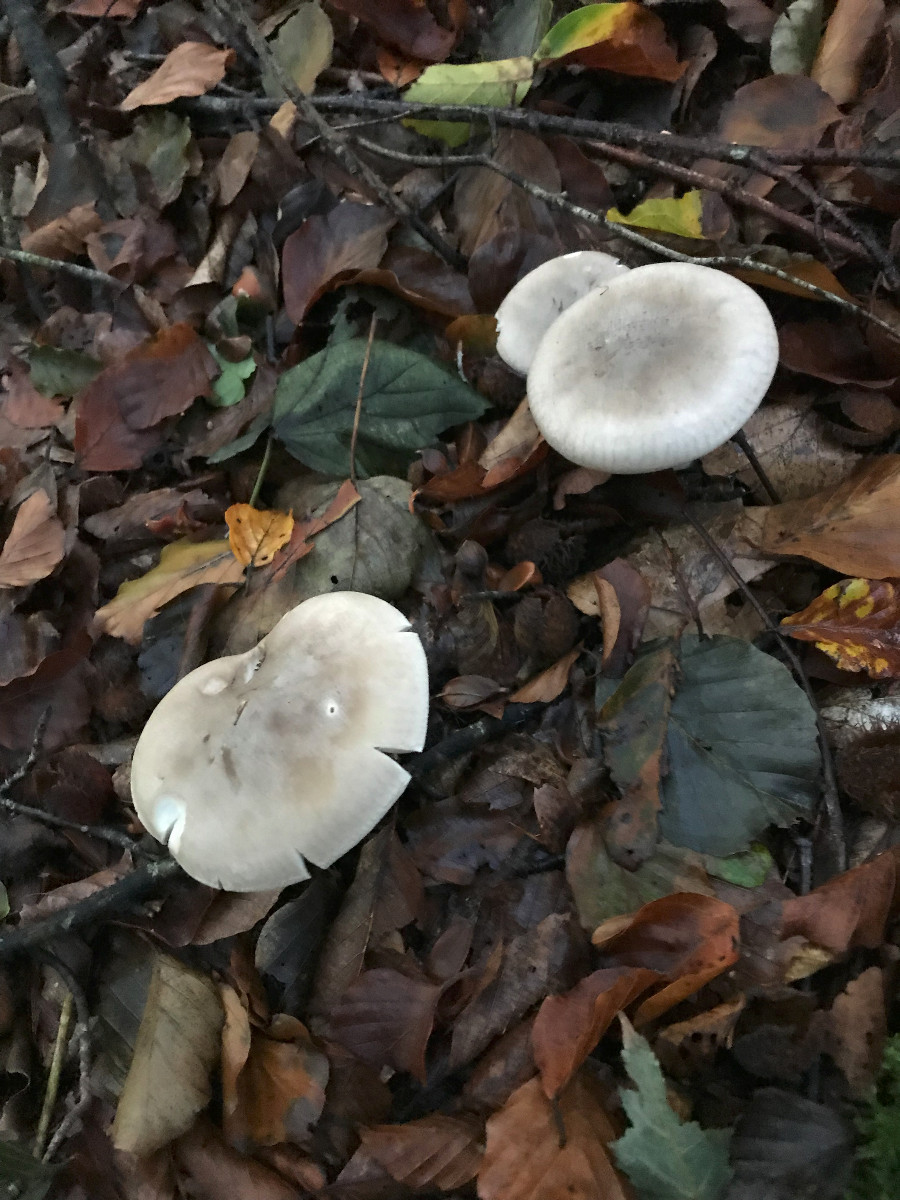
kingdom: Fungi
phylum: Basidiomycota
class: Agaricomycetes
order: Agaricales
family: Tricholomataceae
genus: Clitocybe
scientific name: Clitocybe nebularis
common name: tåge-tragthat
